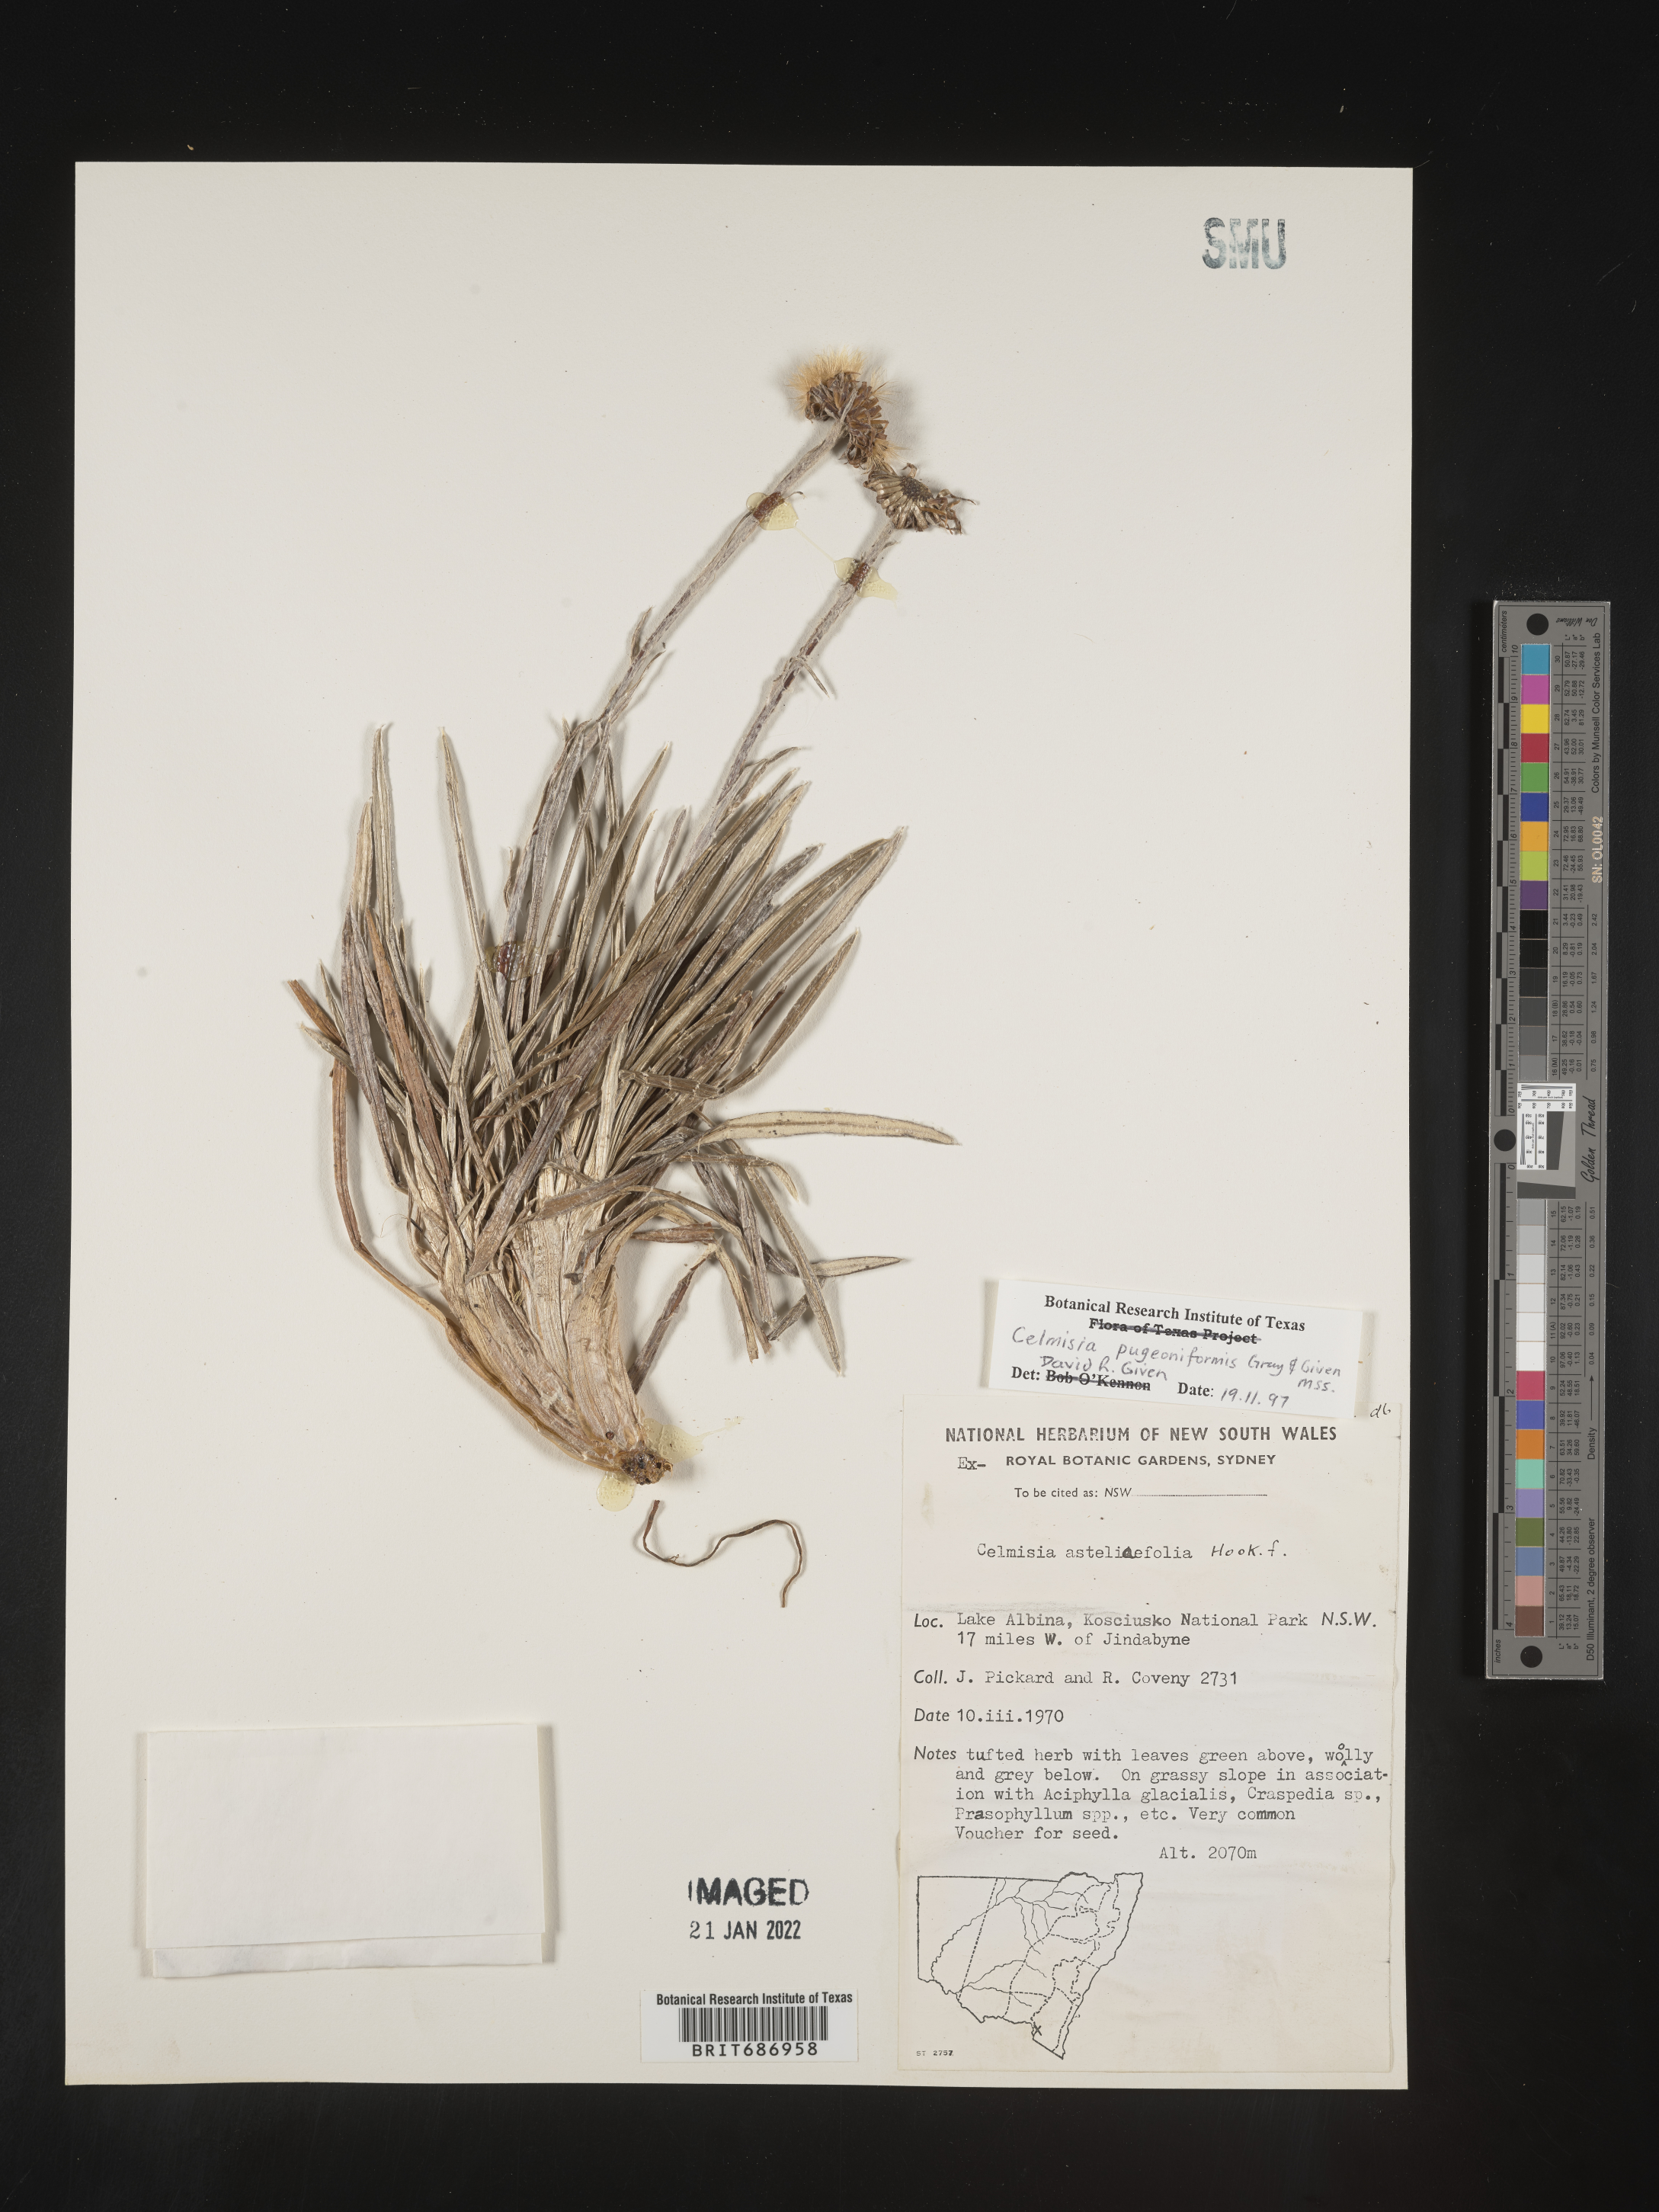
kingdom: Plantae
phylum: Tracheophyta
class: Magnoliopsida
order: Asterales
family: Asteraceae
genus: Celmisia
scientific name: Celmisia
